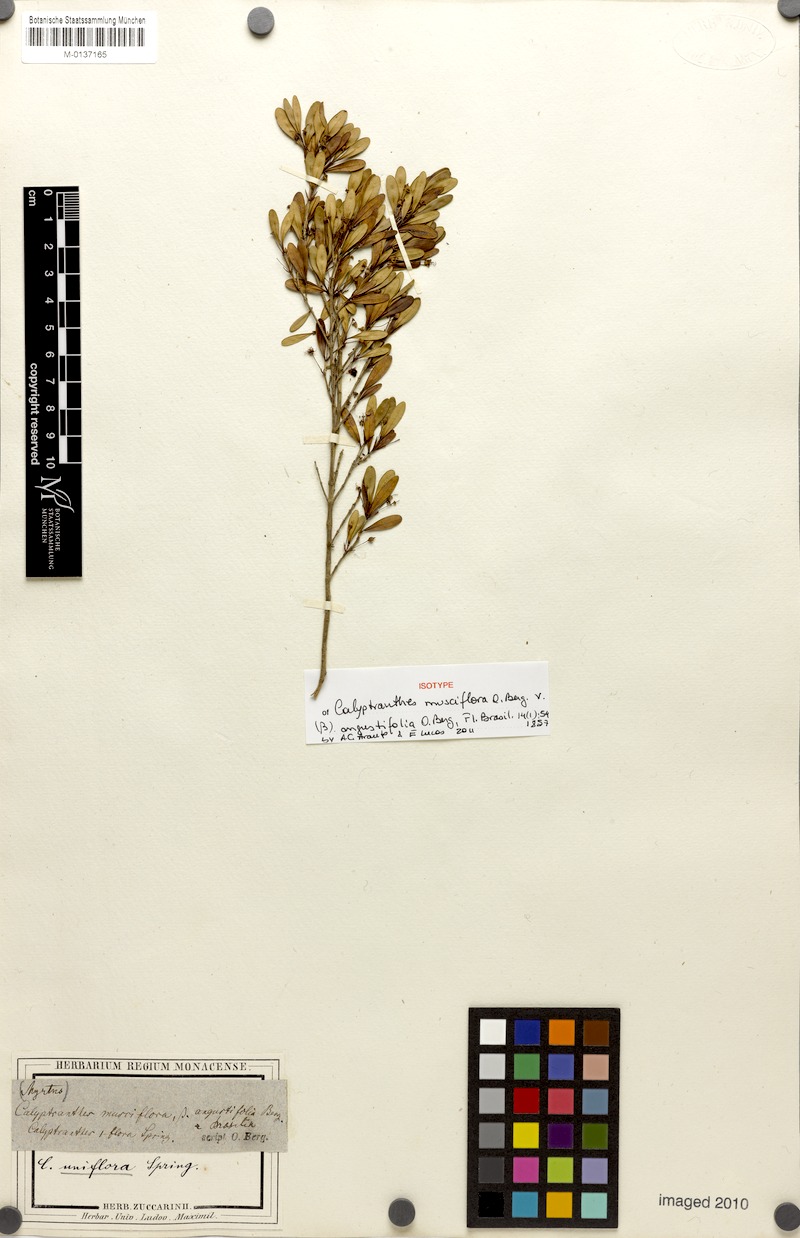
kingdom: Plantae
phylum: Tracheophyta
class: Magnoliopsida
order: Myrtales
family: Myrtaceae
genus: Myrcia
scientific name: Myrcia grammica
